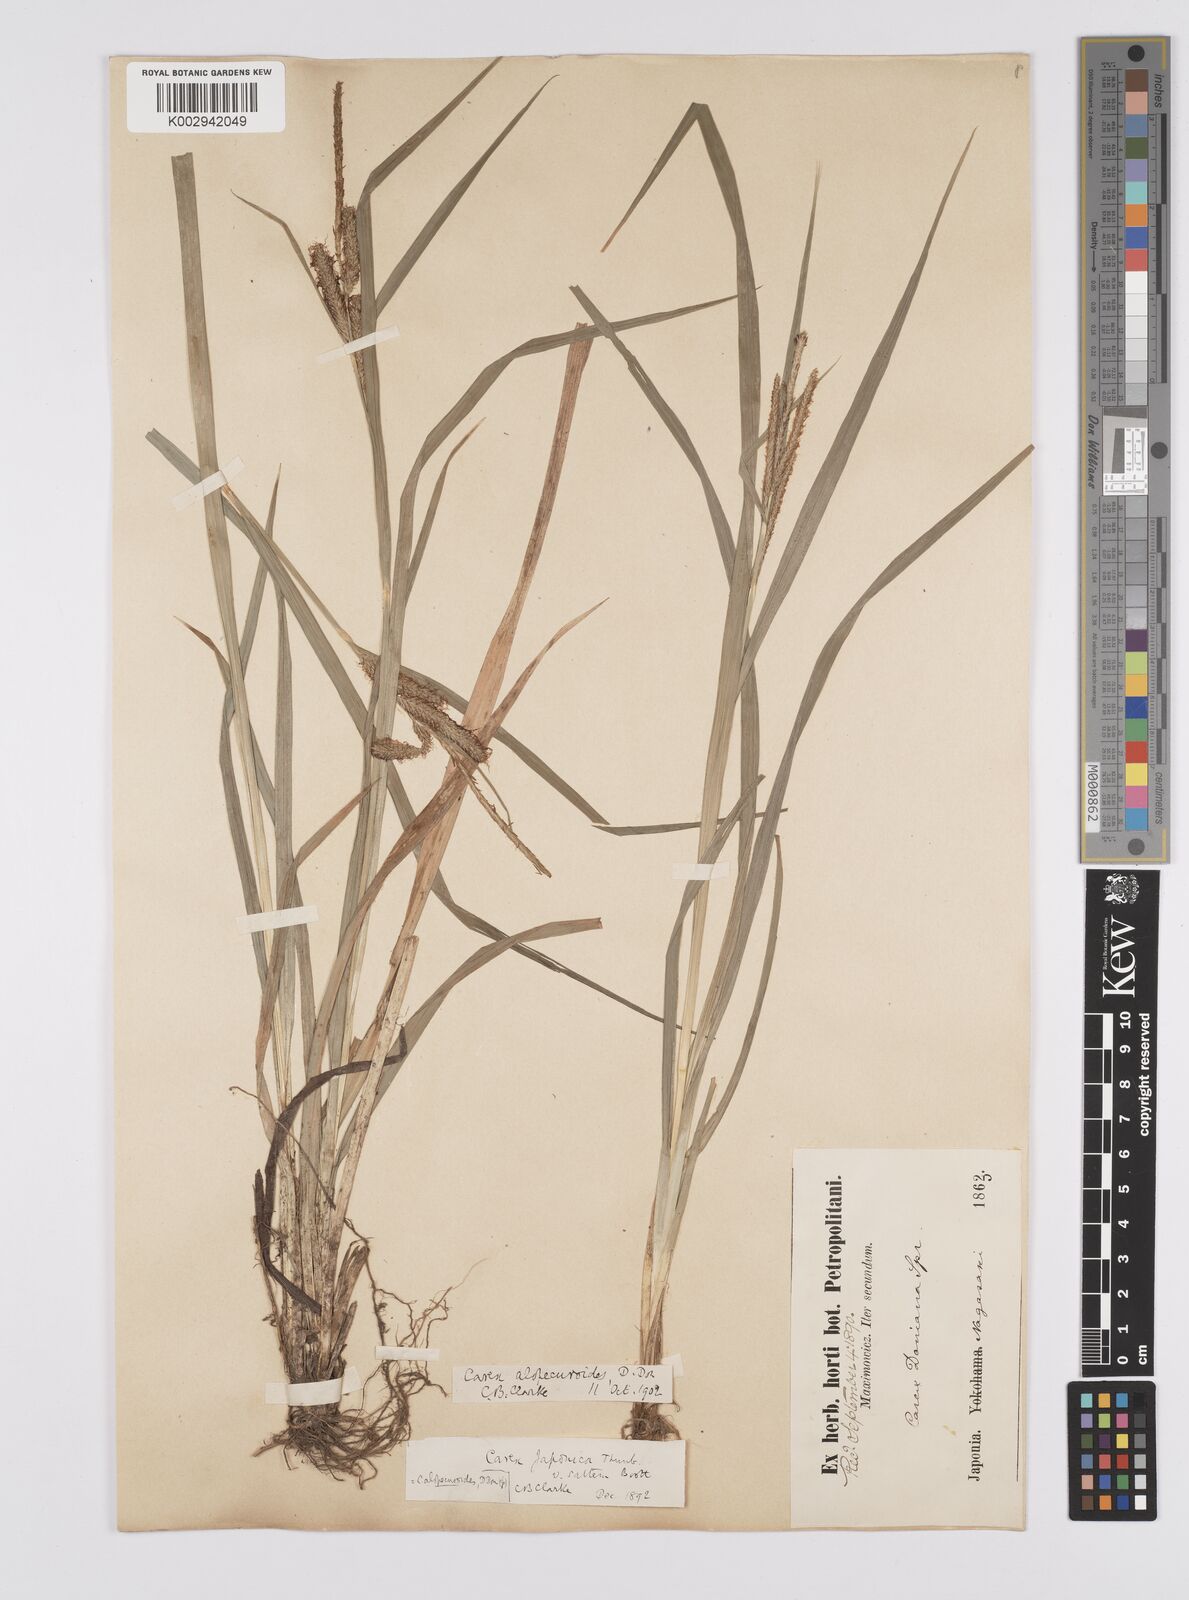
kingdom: Plantae
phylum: Tracheophyta
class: Liliopsida
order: Poales
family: Cyperaceae
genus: Carex
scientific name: Carex japonica
